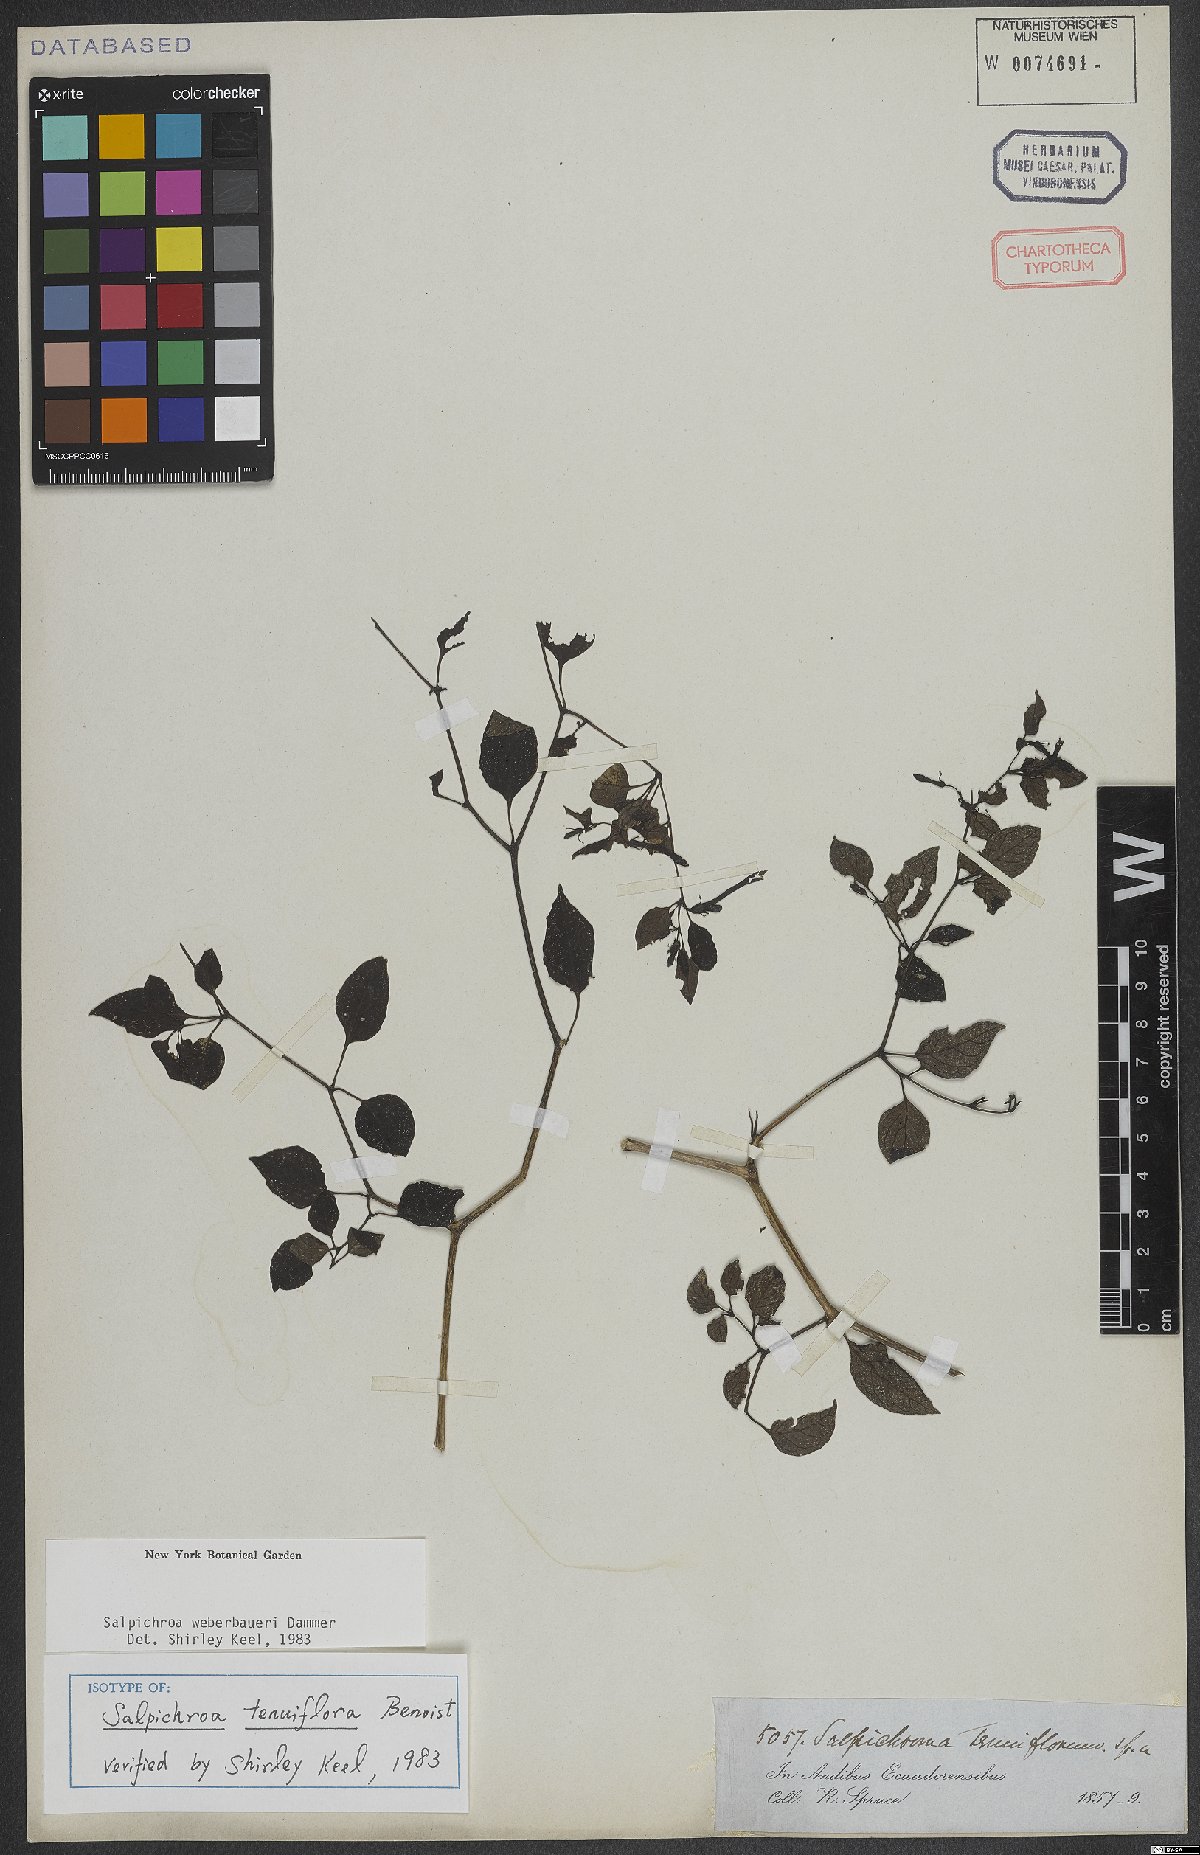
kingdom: Plantae
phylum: Tracheophyta
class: Magnoliopsida
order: Solanales
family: Solanaceae
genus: Salpichroa
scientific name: Salpichroa weberbaueri
